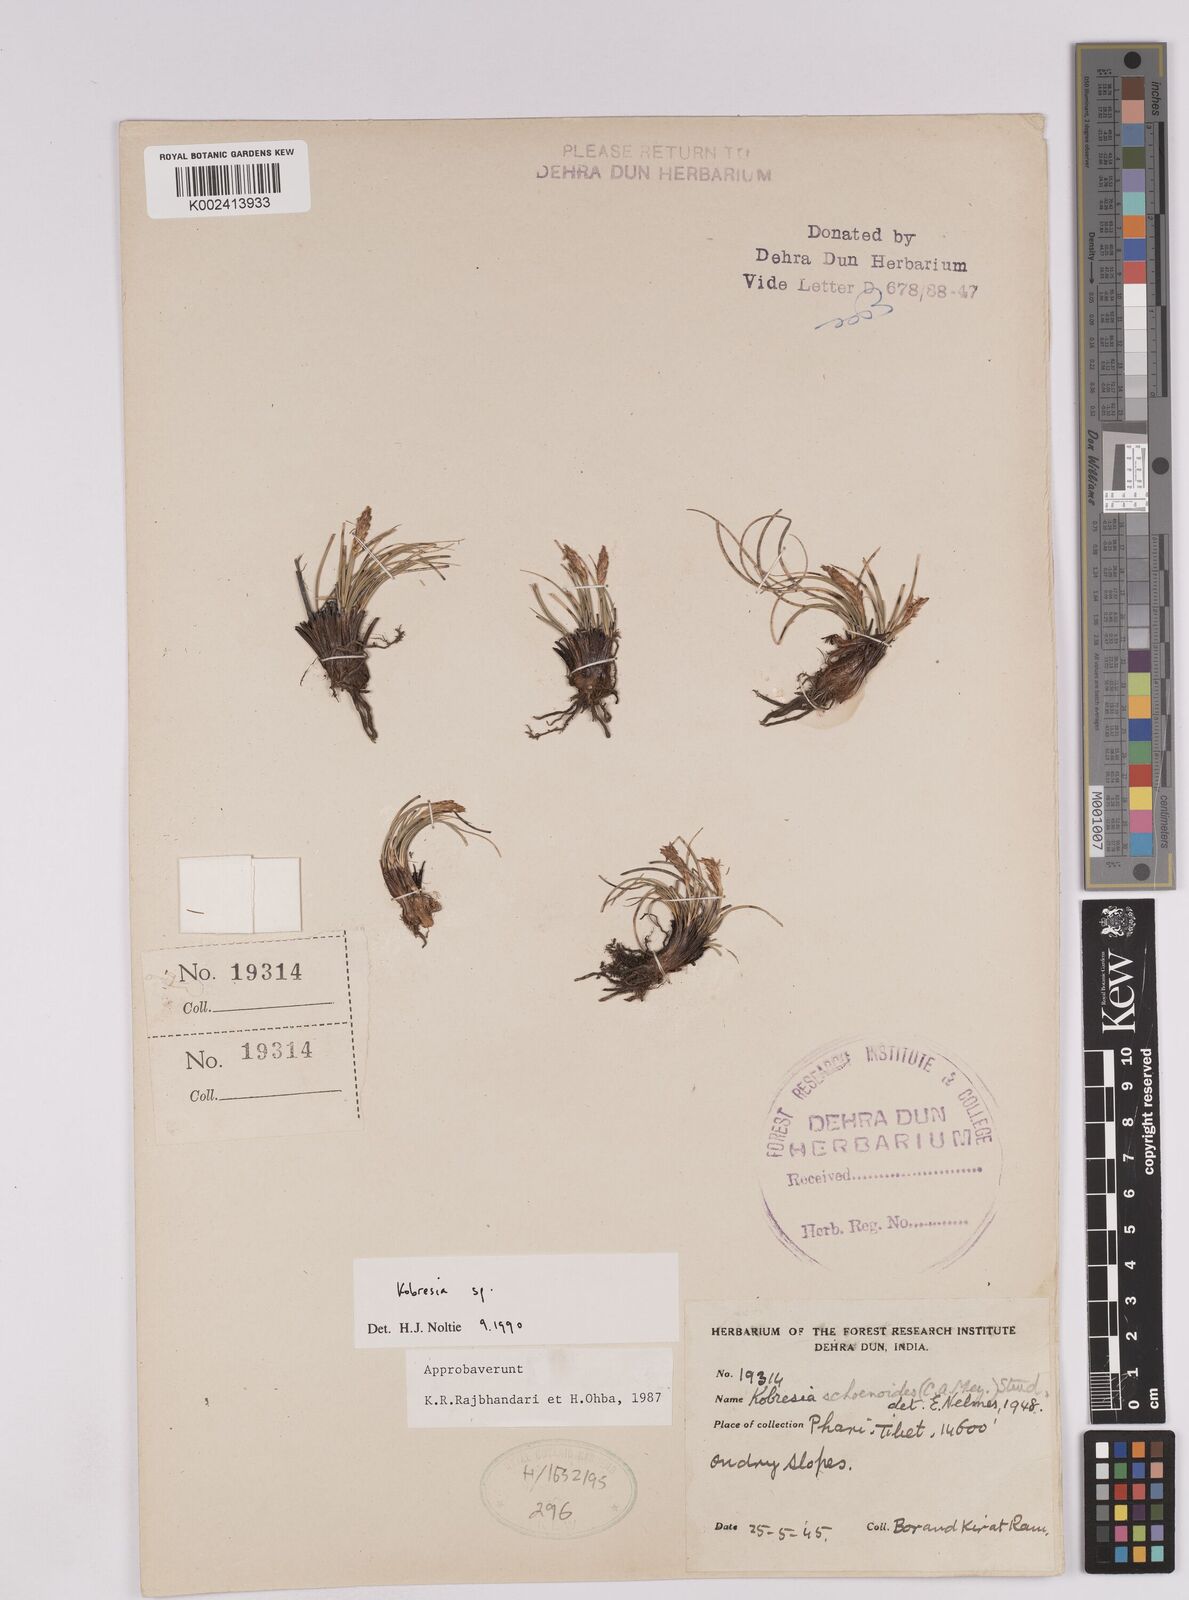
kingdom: Plantae
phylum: Tracheophyta
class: Liliopsida
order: Poales
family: Cyperaceae
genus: Carex
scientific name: Carex
